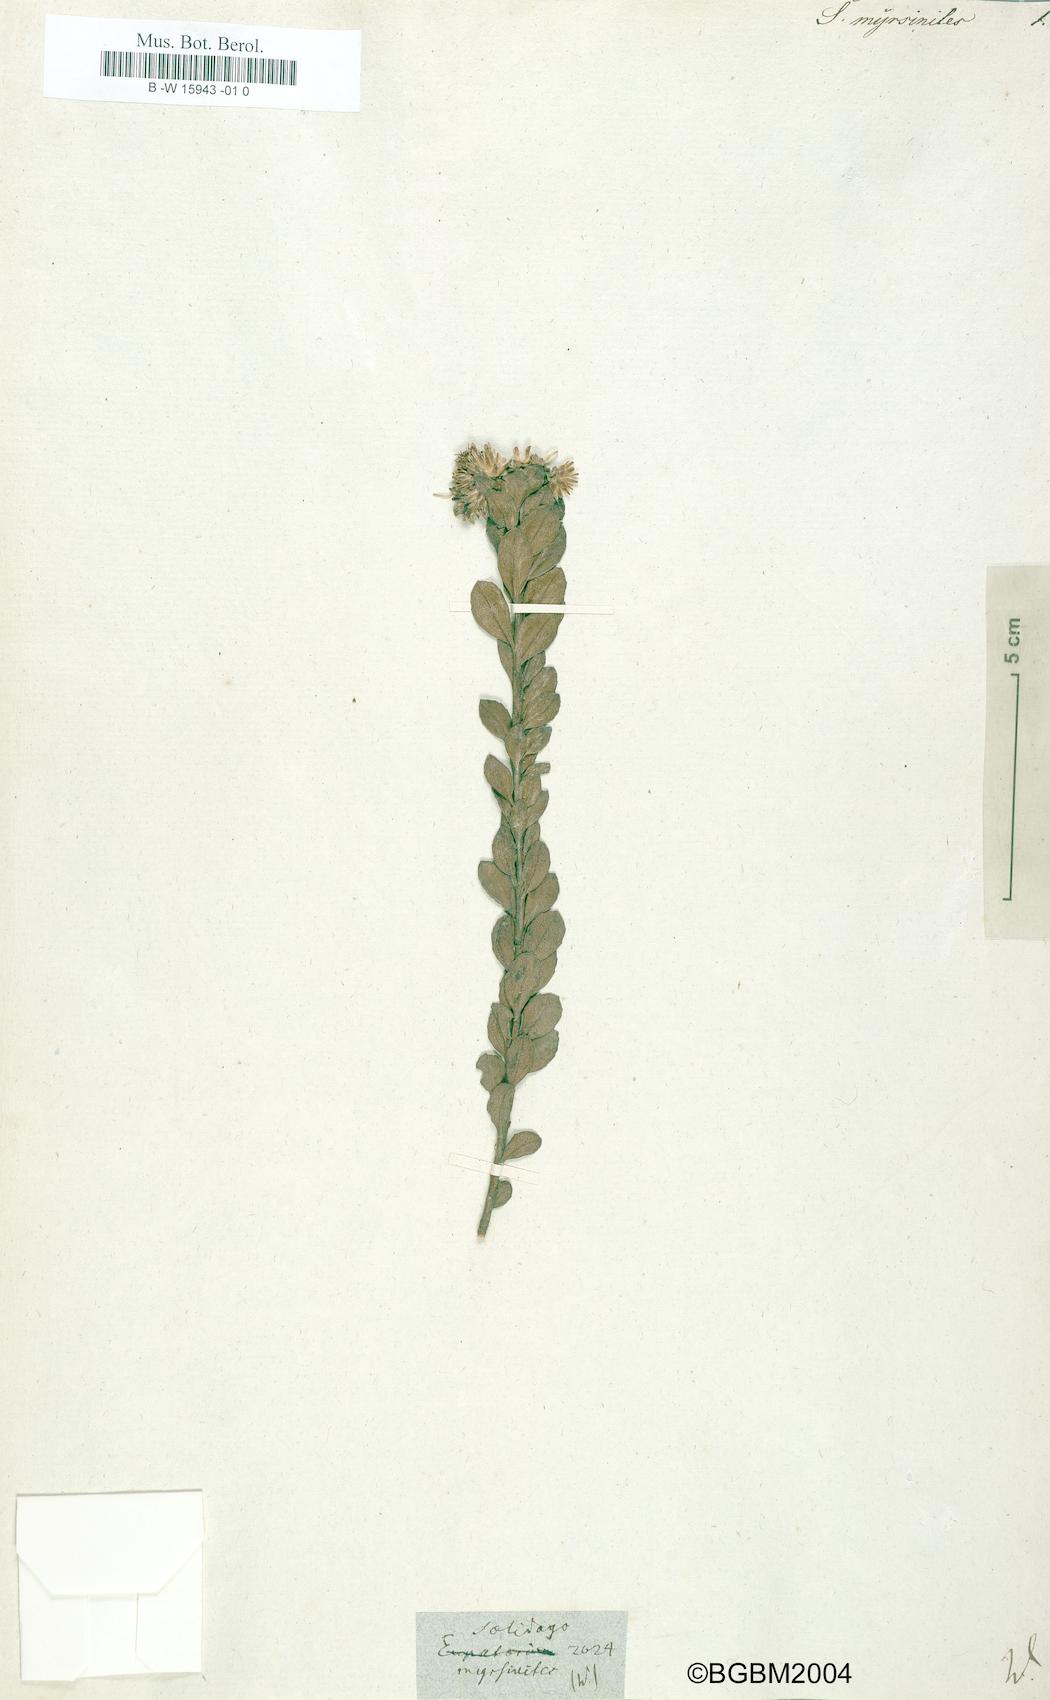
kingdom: Plantae
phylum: Tracheophyta
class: Magnoliopsida
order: Asterales
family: Asteraceae
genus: Solidago
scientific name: Solidago
